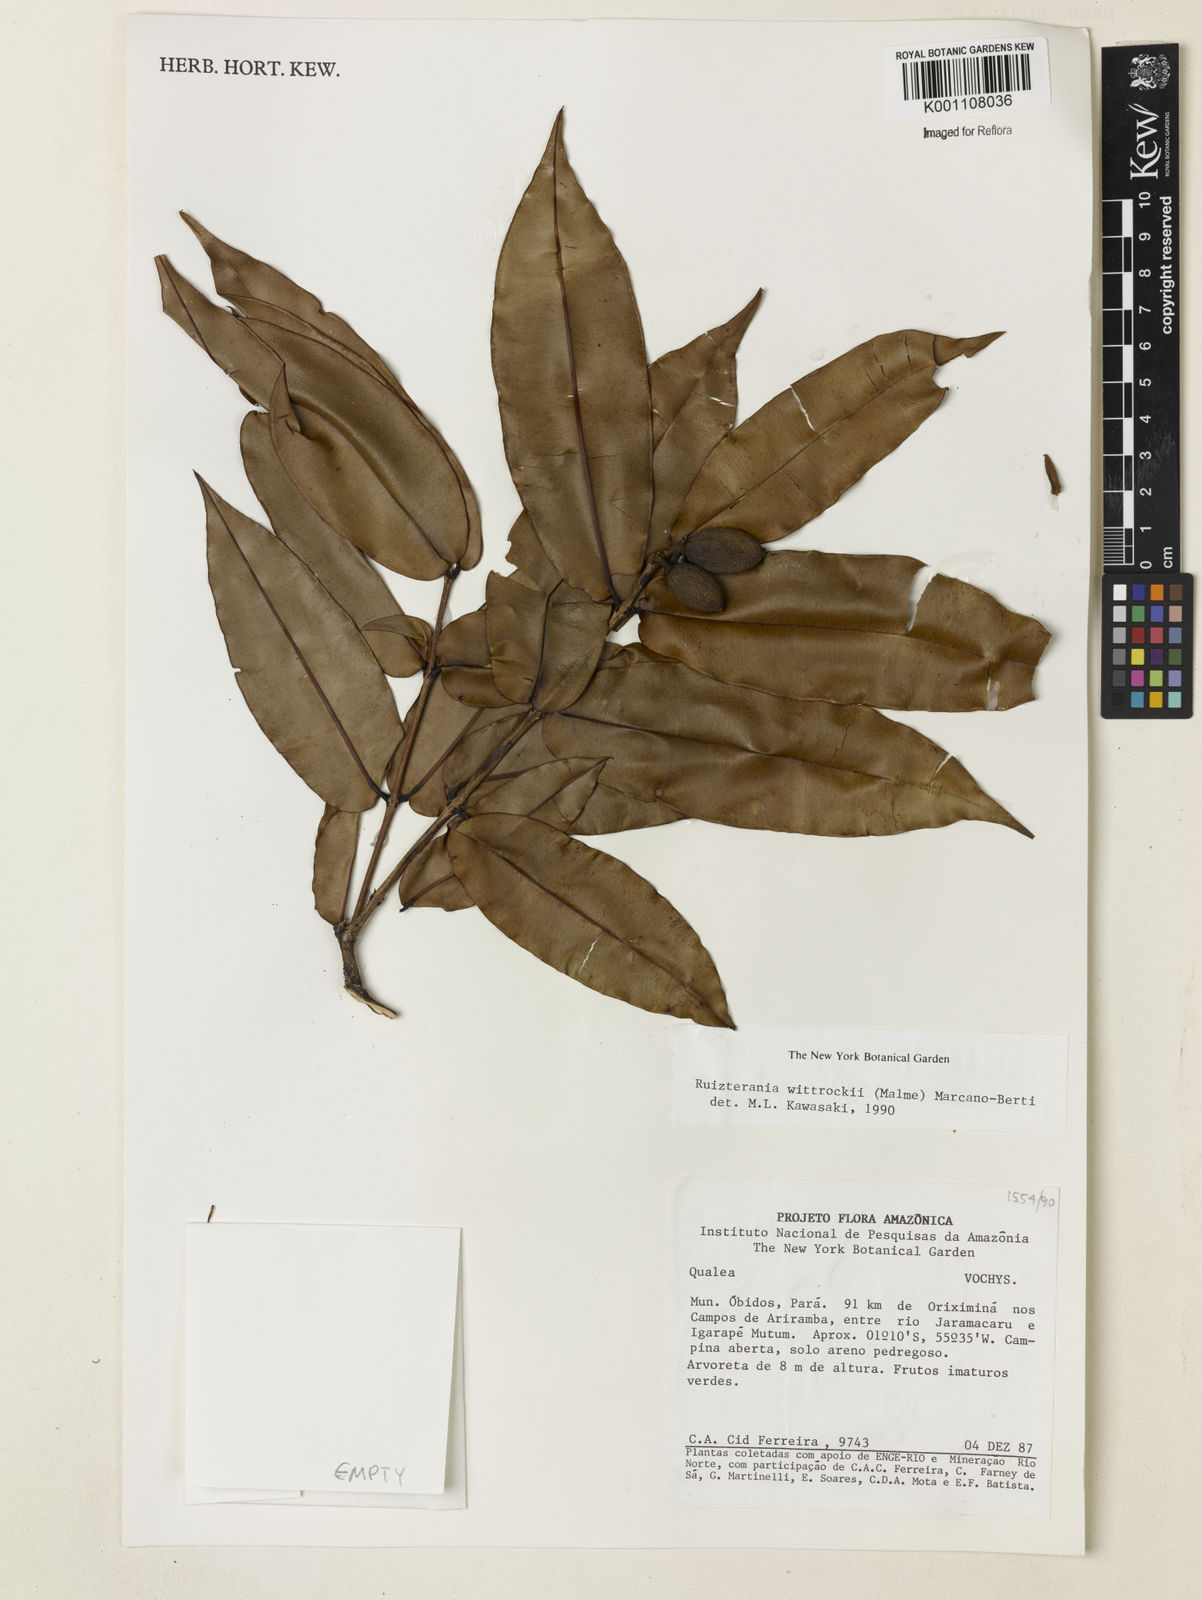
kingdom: Plantae
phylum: Tracheophyta
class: Magnoliopsida
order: Myrtales
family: Vochysiaceae
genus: Ruizterania
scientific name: Ruizterania wittrockii
